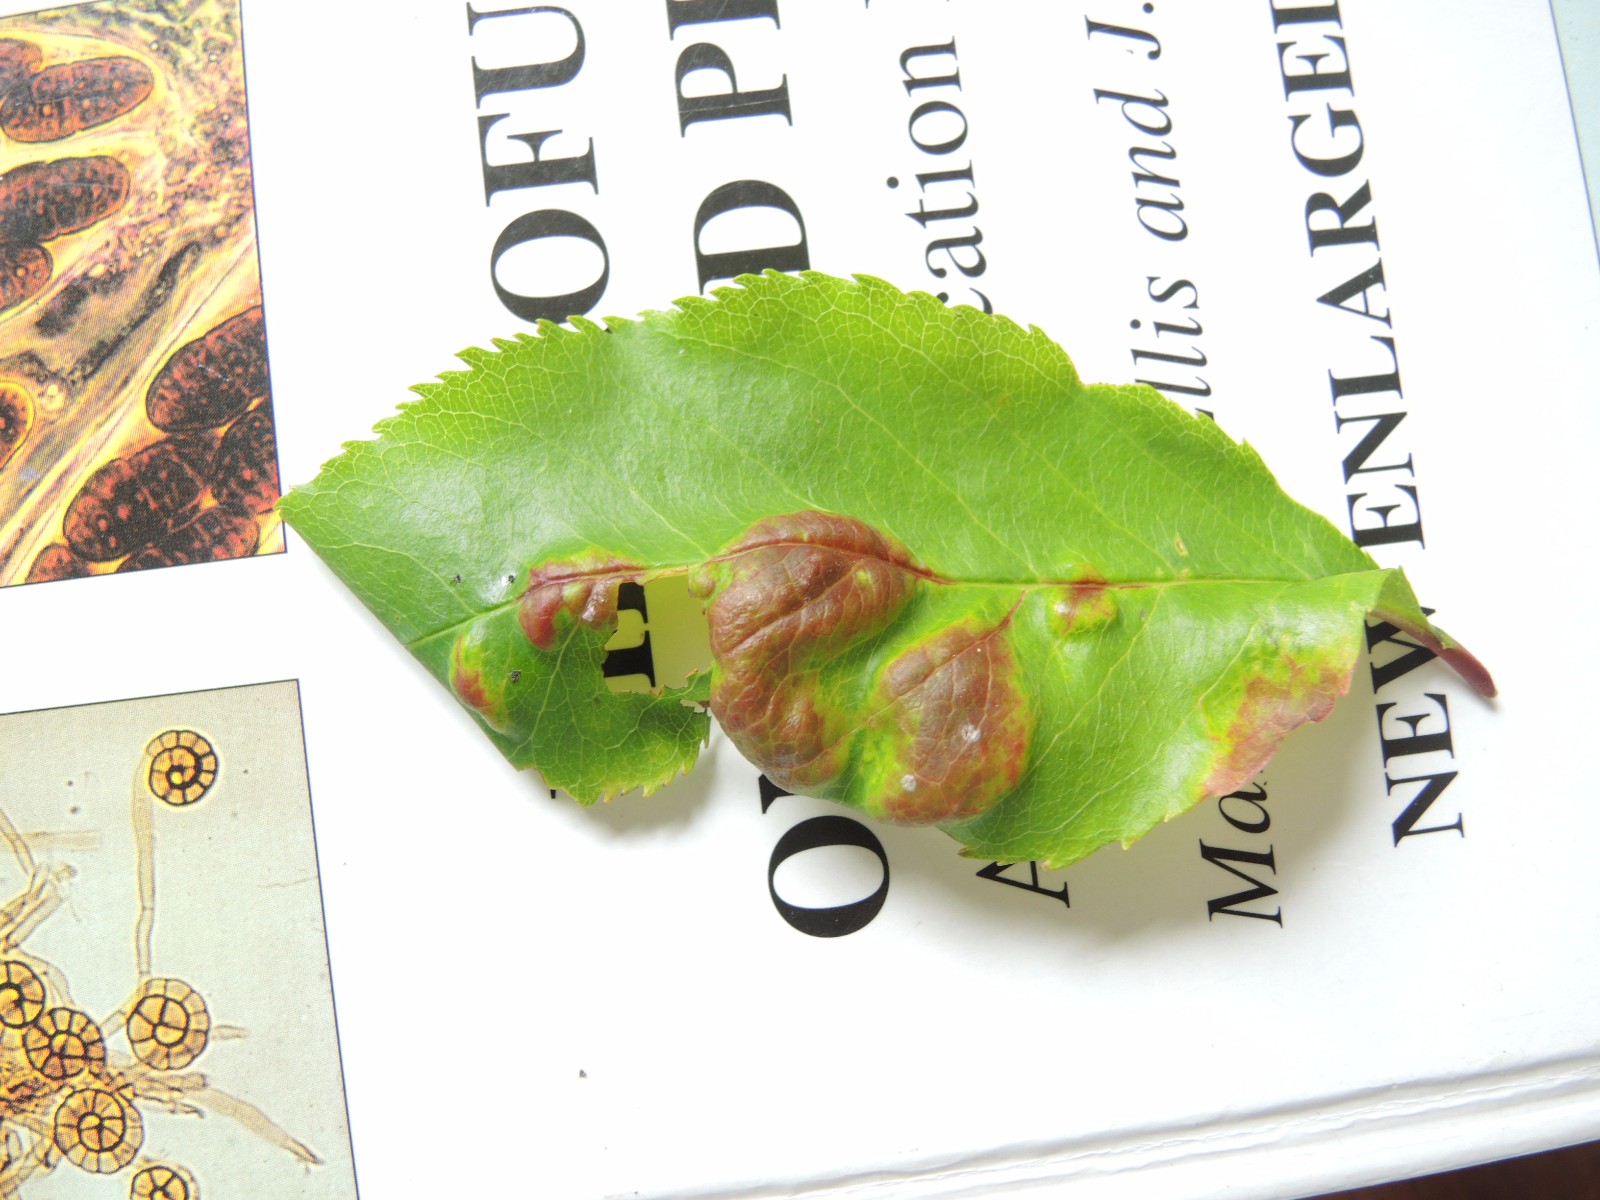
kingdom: Fungi
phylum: Ascomycota
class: Taphrinomycetes
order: Taphrinales
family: Taphrinaceae
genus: Taphrina
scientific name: Taphrina farlowii
